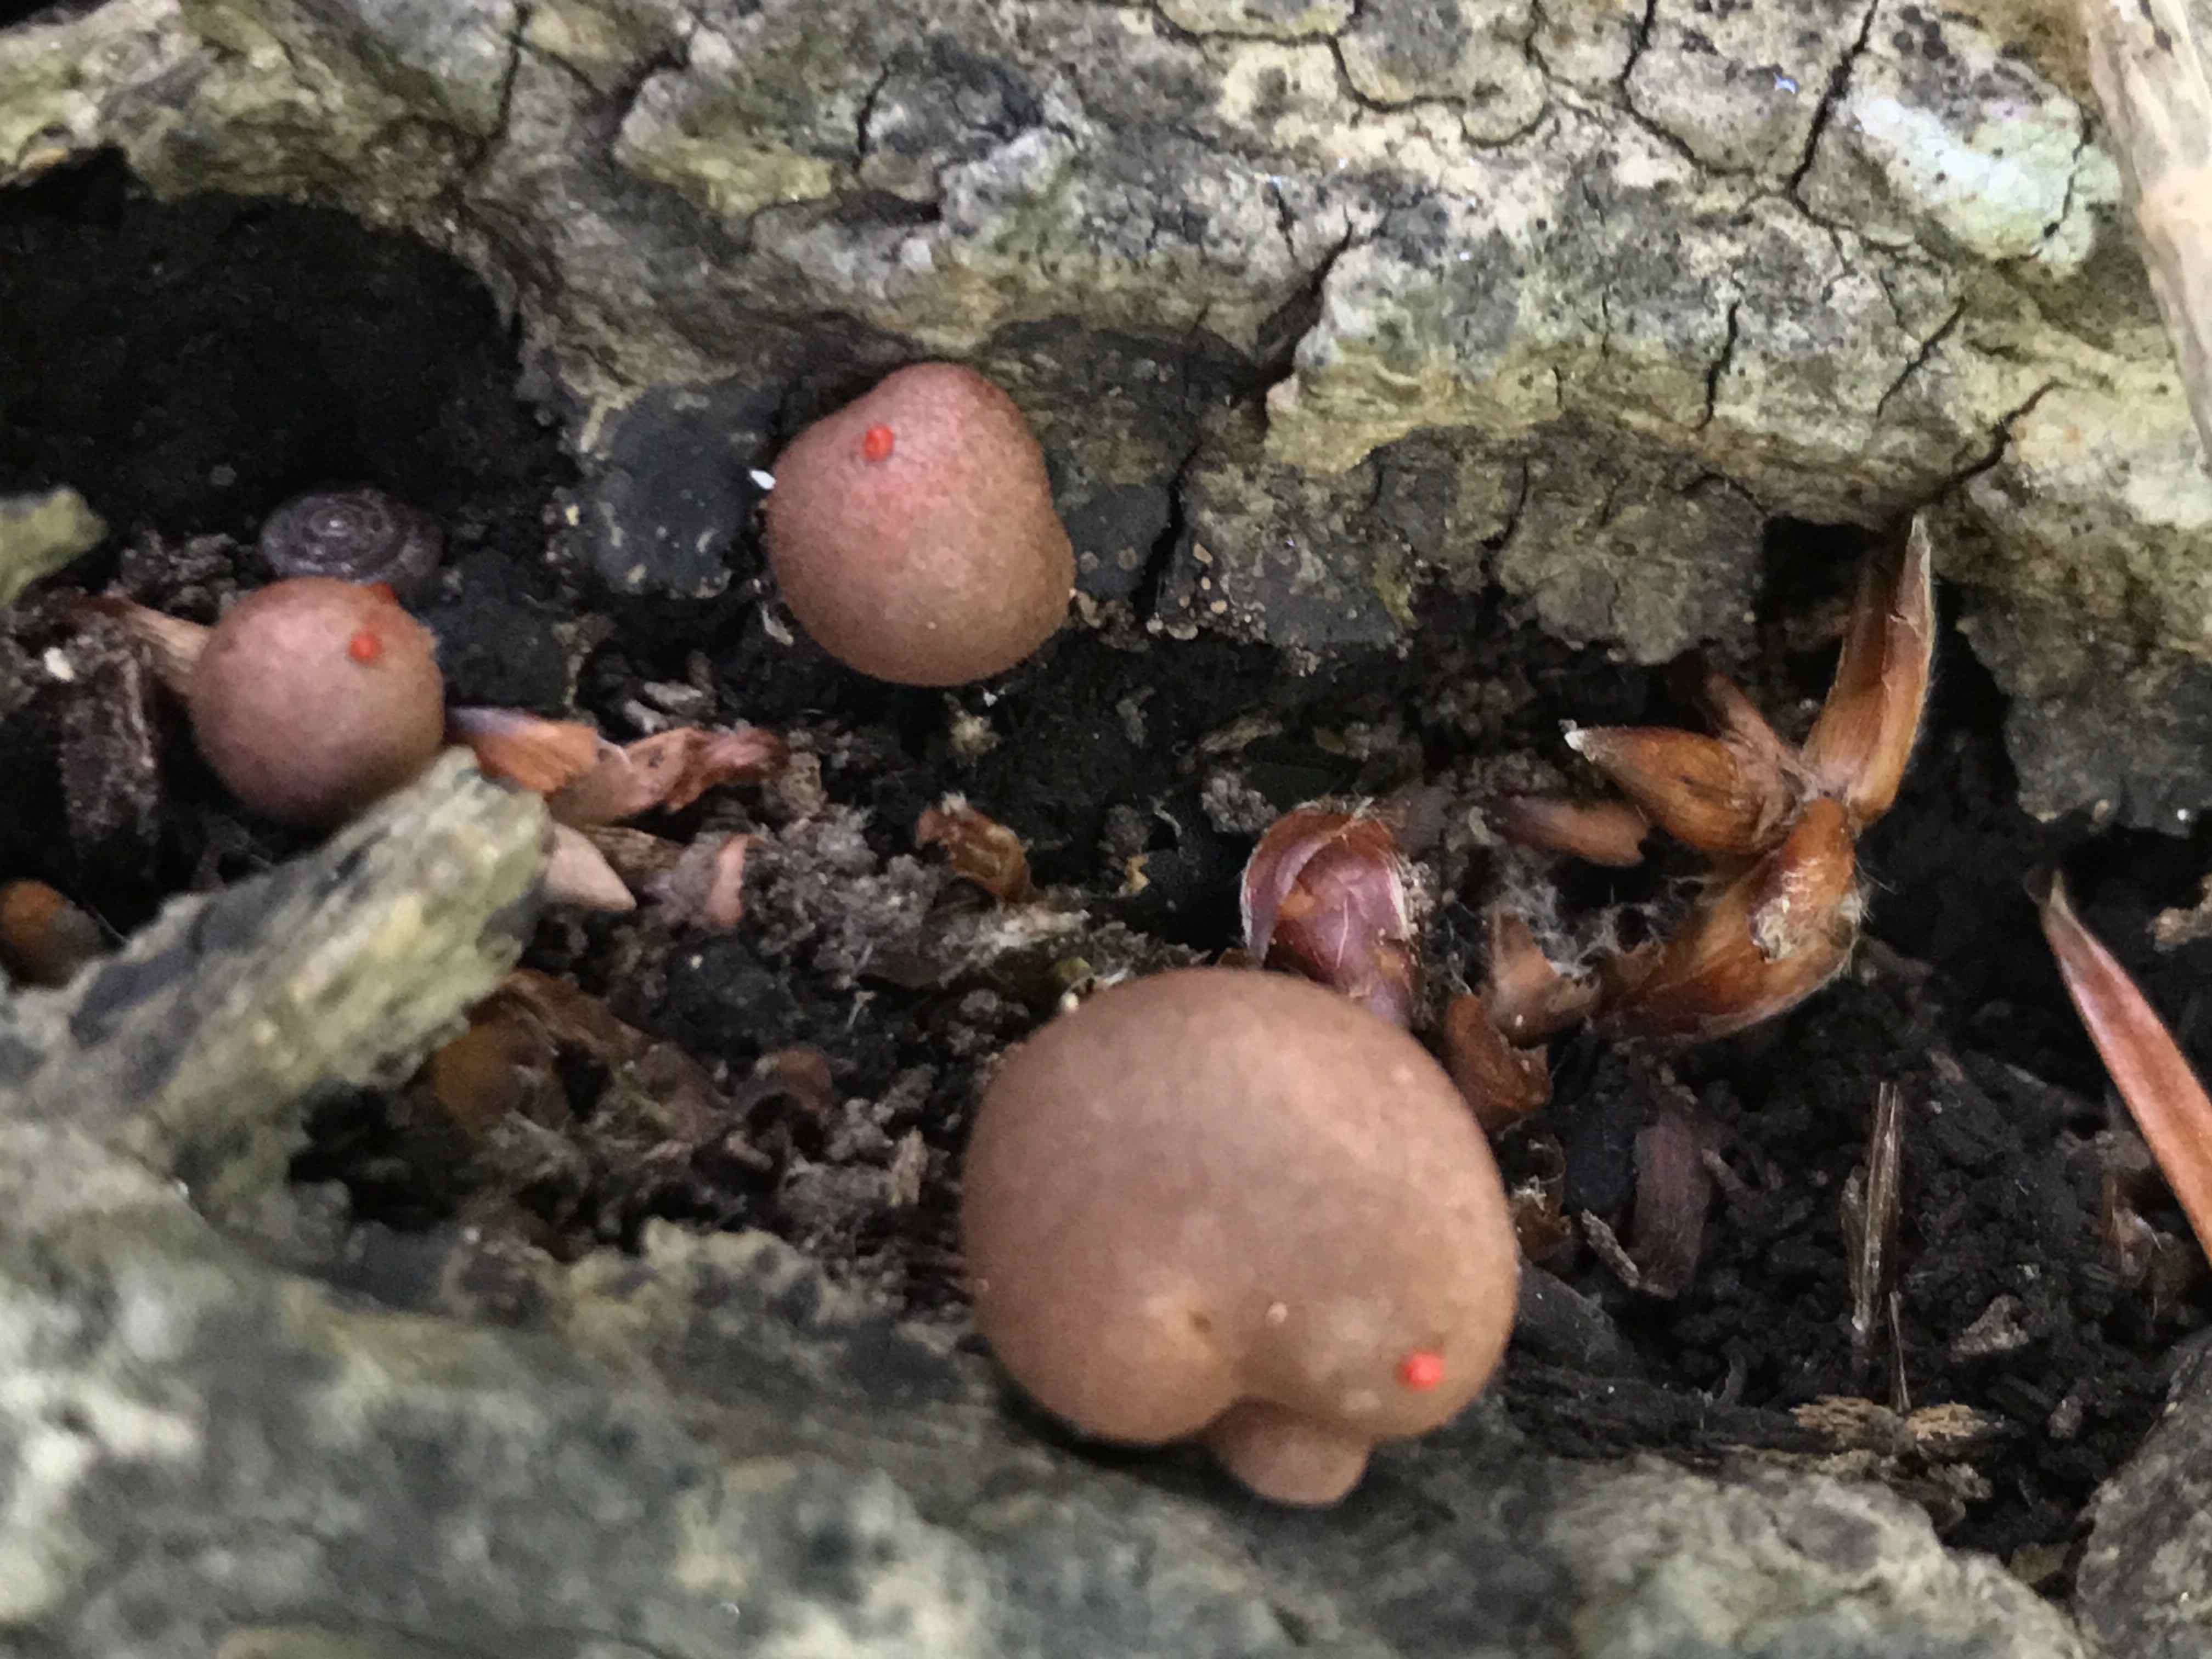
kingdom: Protozoa
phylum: Mycetozoa
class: Myxomycetes
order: Cribrariales
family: Tubiferaceae
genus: Lycogala
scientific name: Lycogala epidendrum
